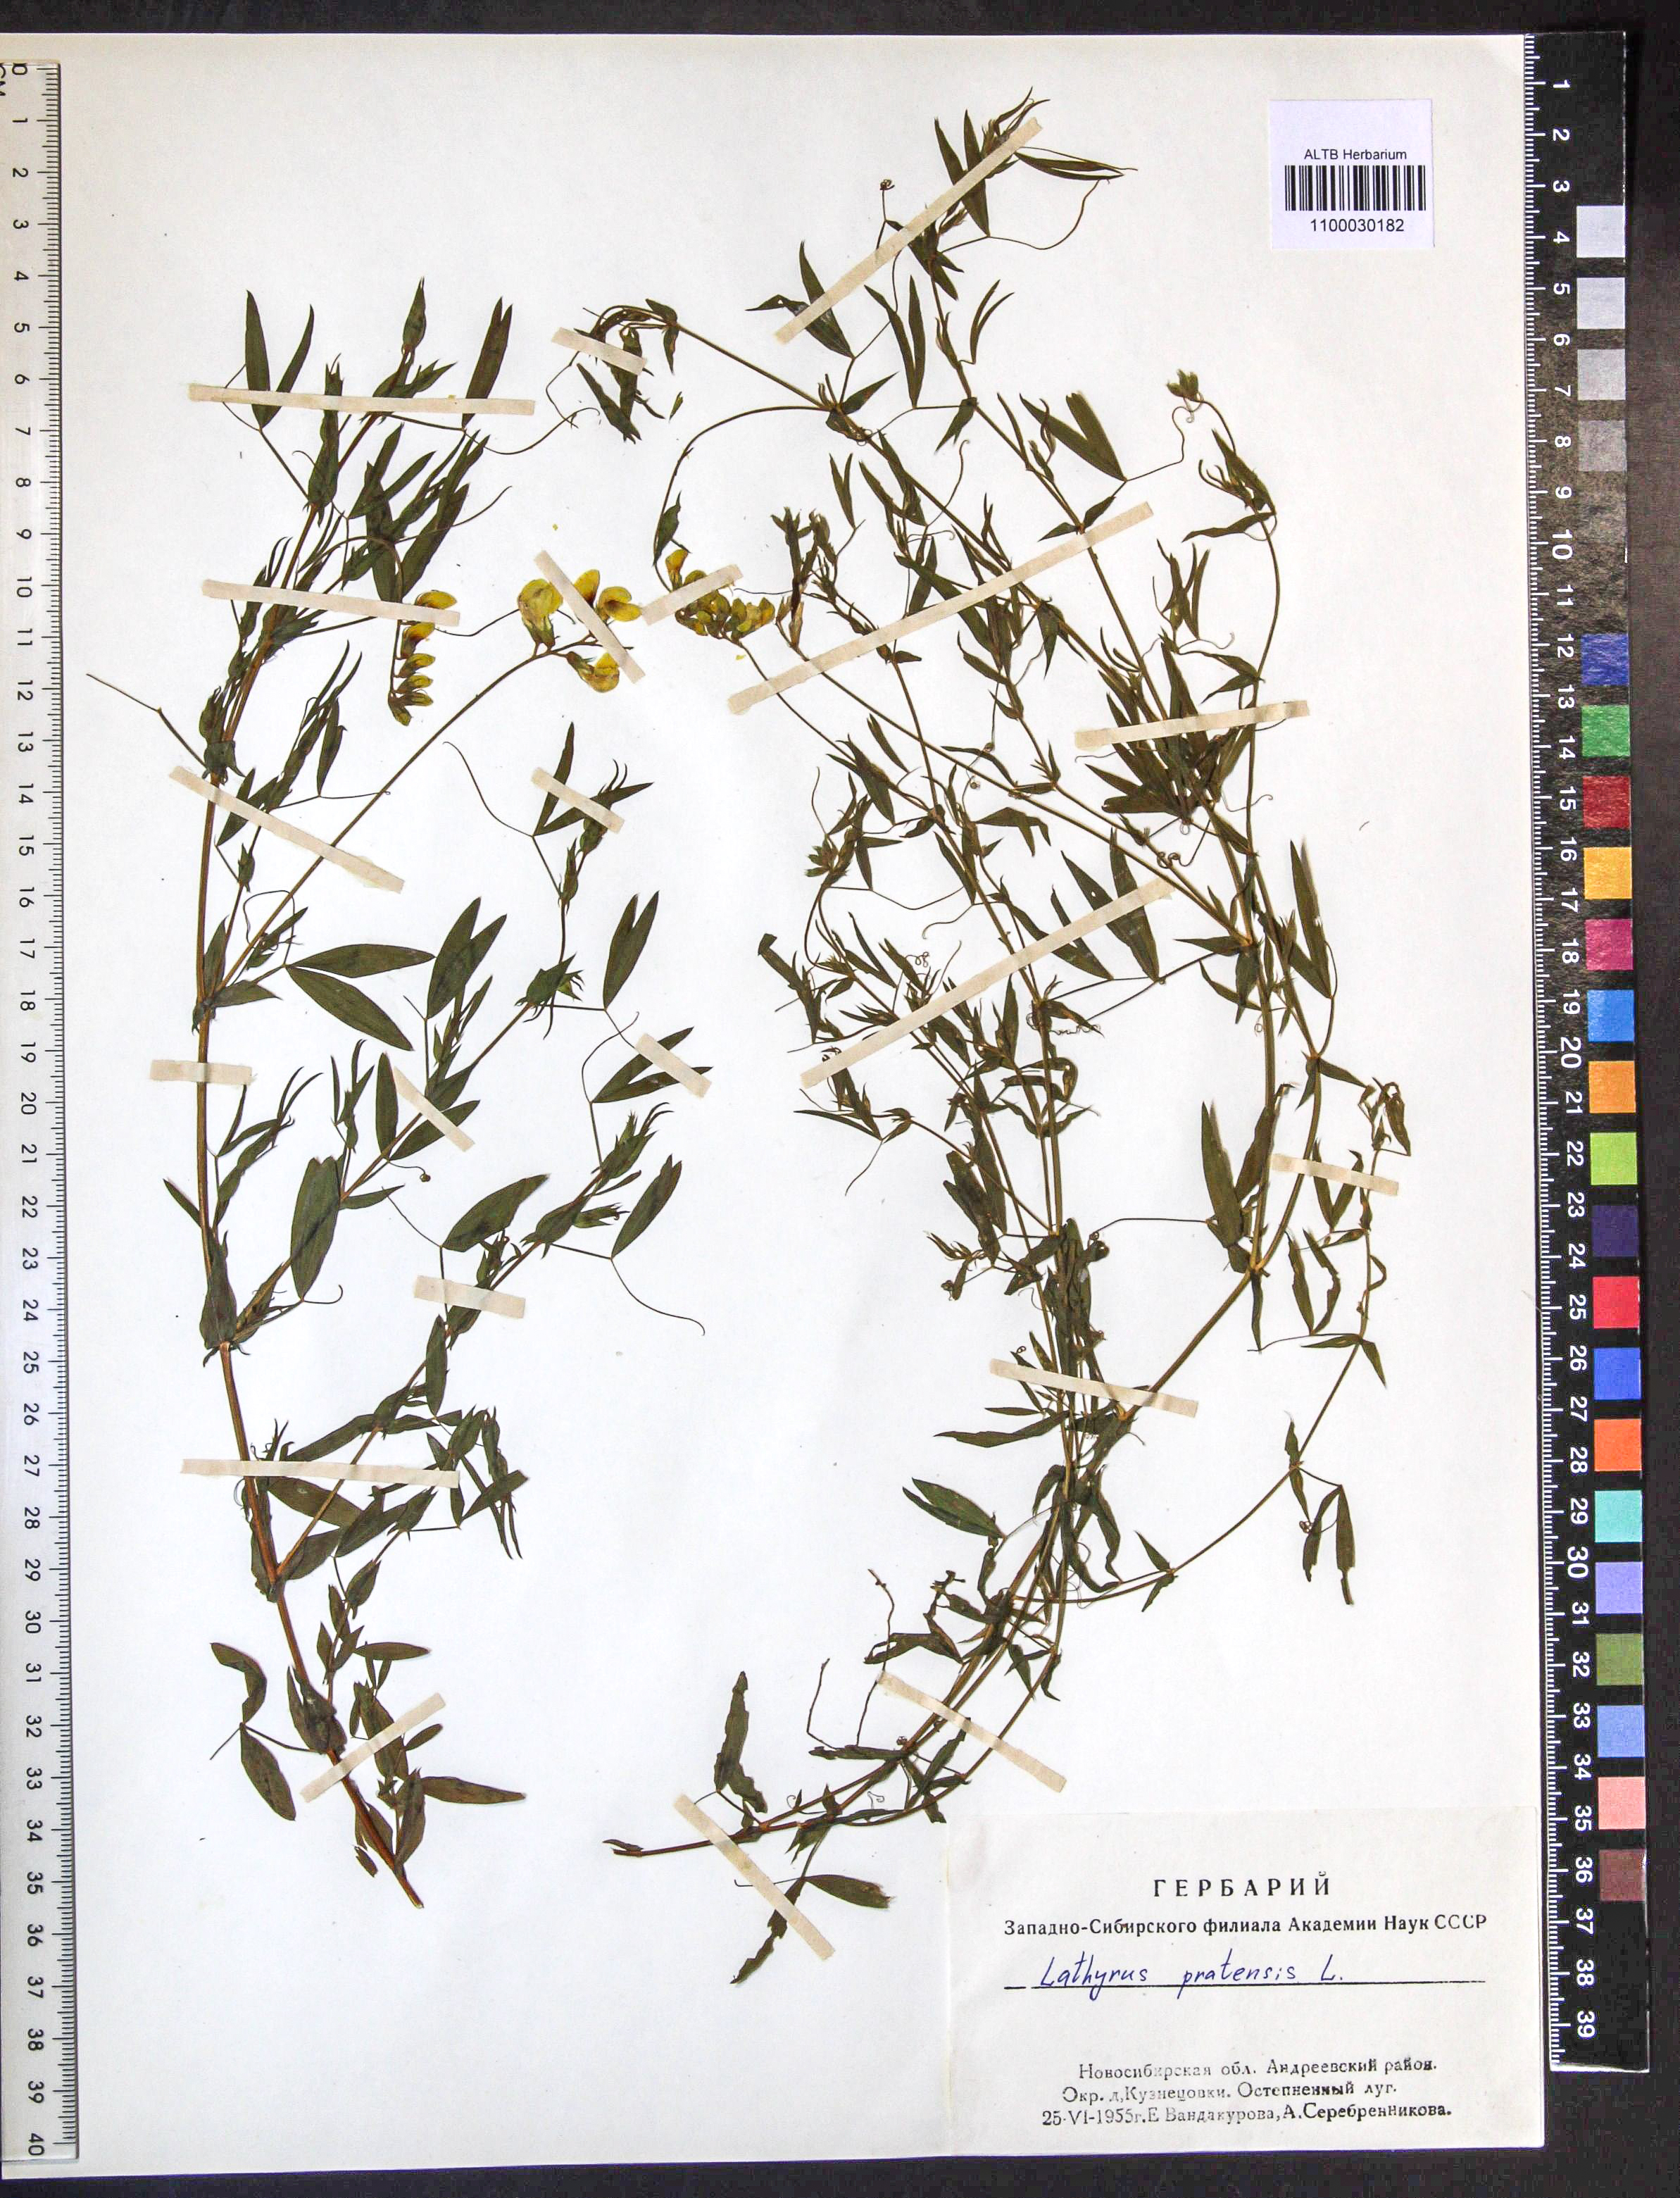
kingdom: Plantae
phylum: Tracheophyta
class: Magnoliopsida
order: Fabales
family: Fabaceae
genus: Lathyrus
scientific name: Lathyrus pratensis
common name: Meadow vetchling
